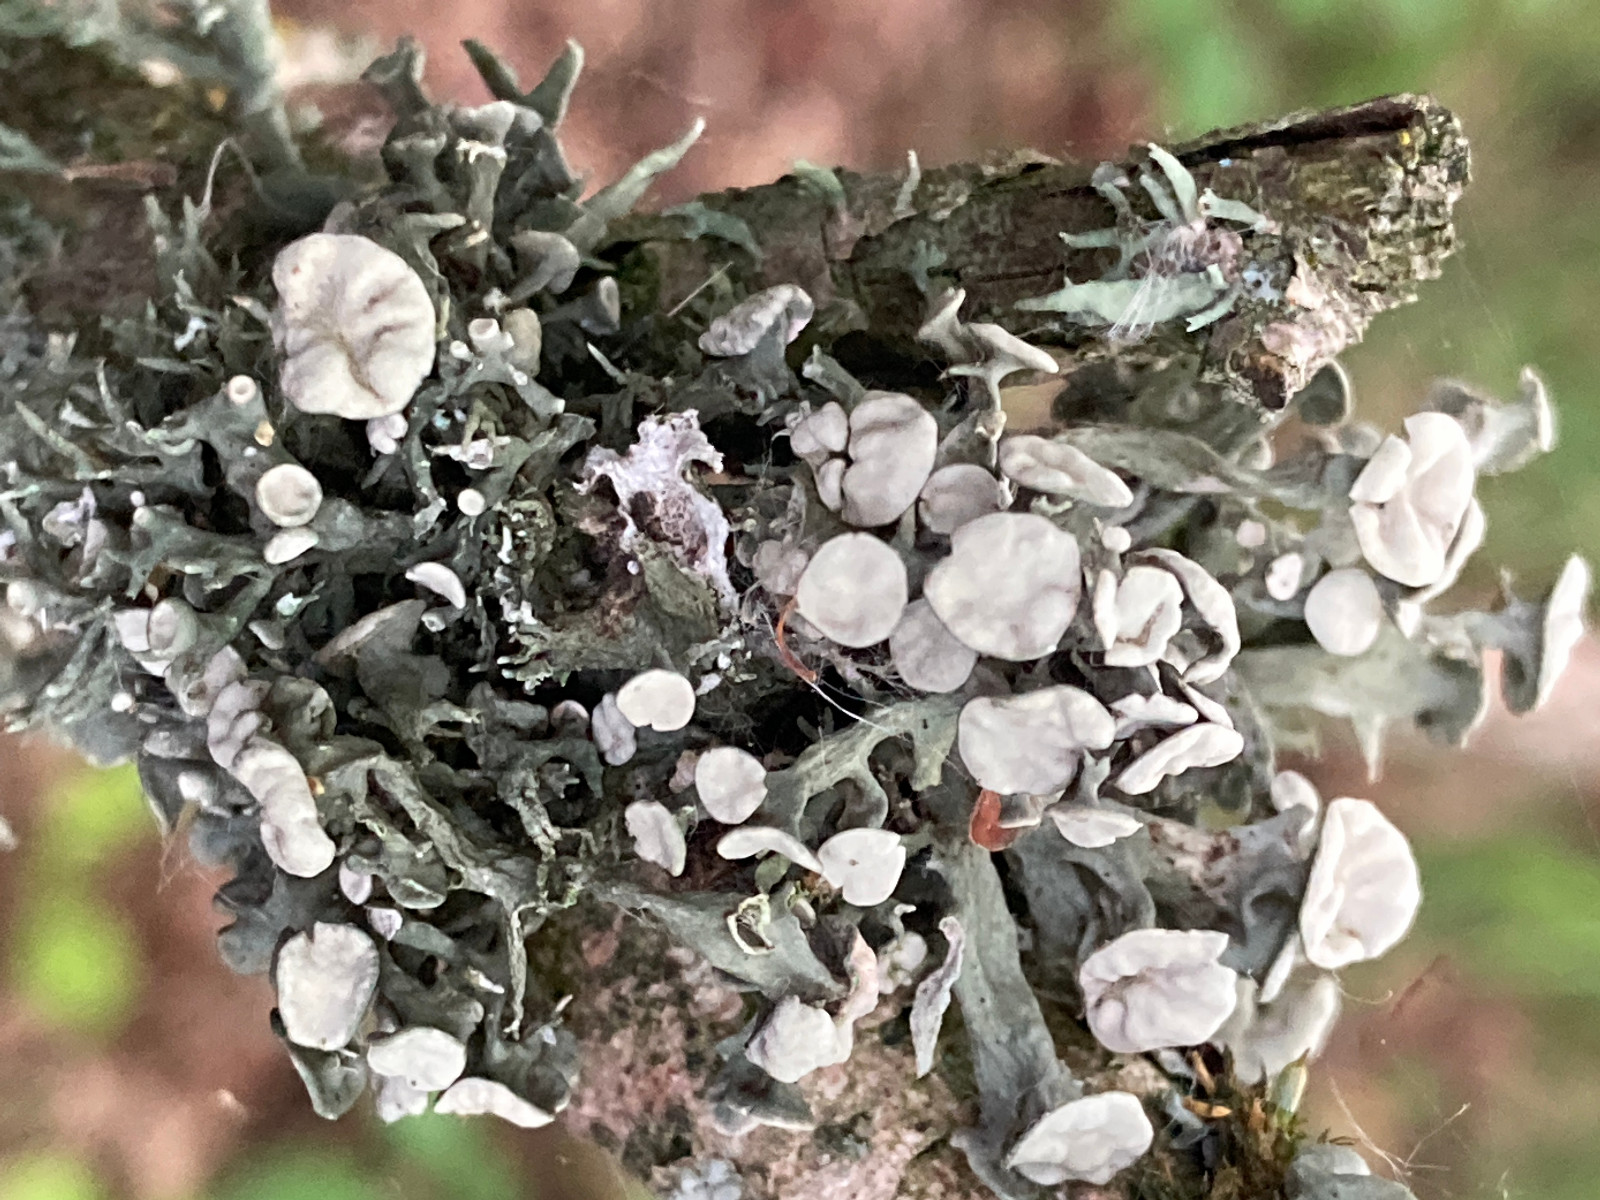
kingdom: Fungi
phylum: Ascomycota
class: Lecanoromycetes
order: Lecanorales
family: Ramalinaceae
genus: Ramalina
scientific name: Ramalina fastigiata
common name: tue-grenlav
